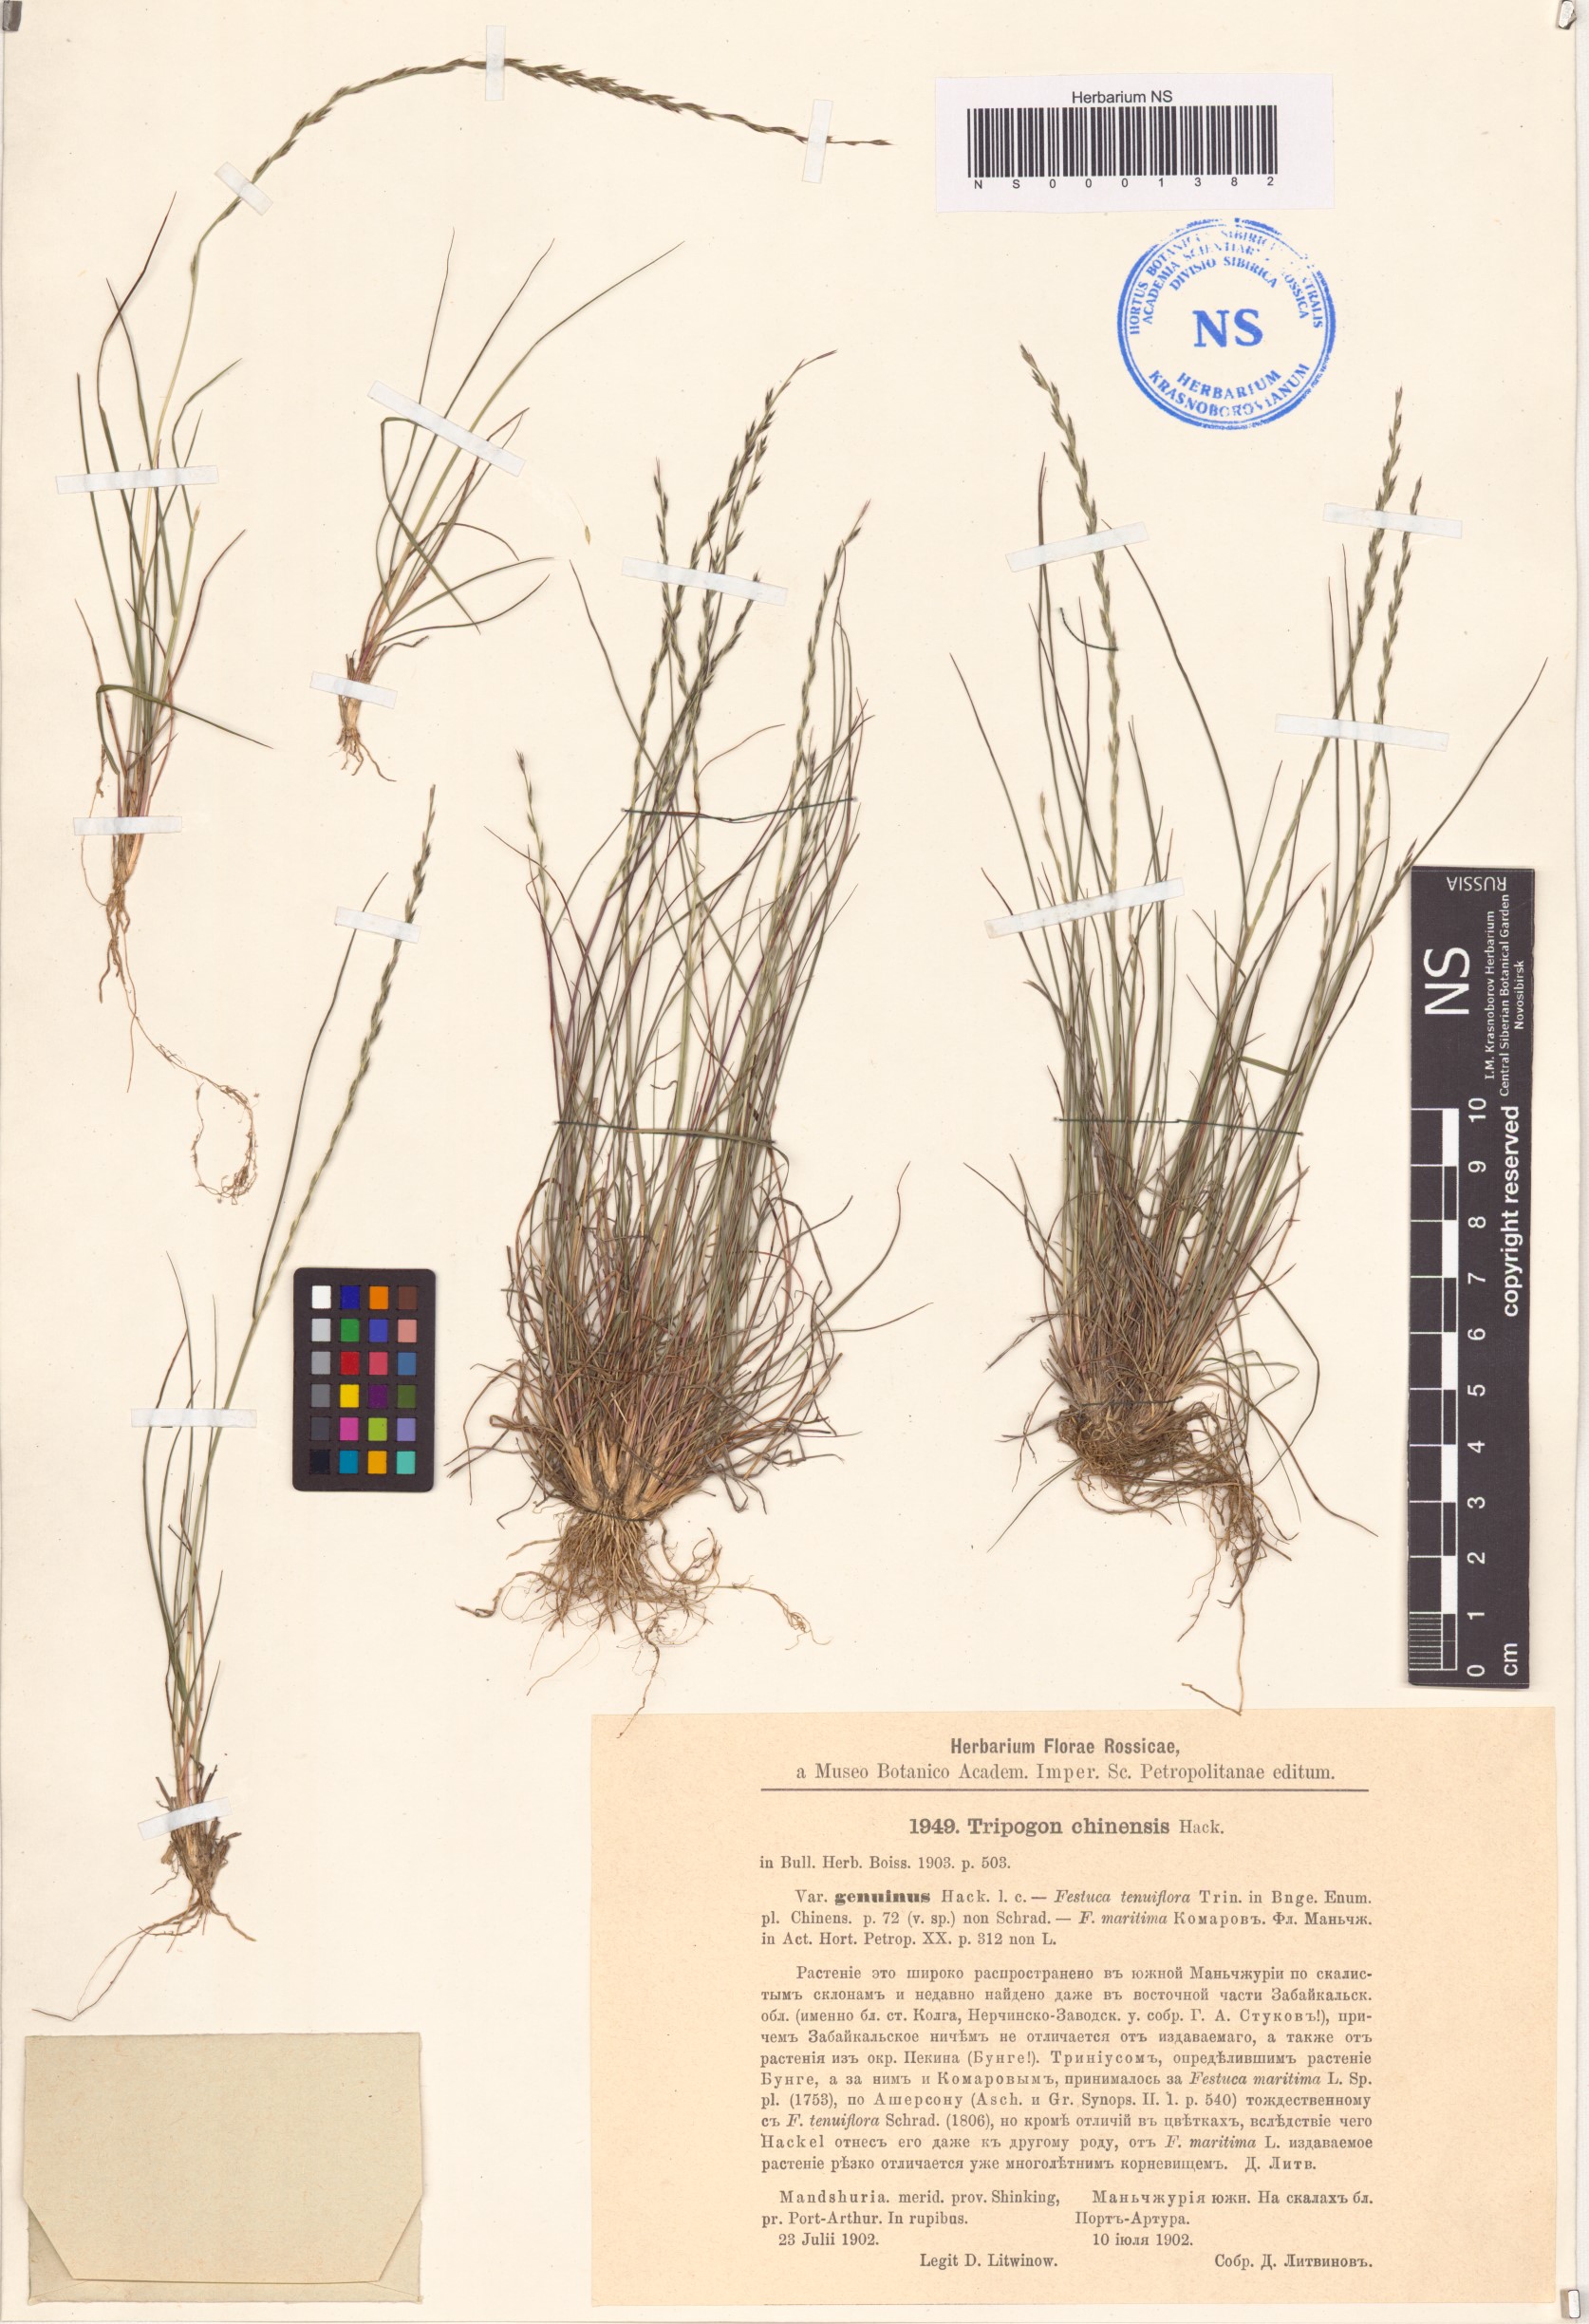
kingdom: Plantae
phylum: Tracheophyta
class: Liliopsida
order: Poales
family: Poaceae
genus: Tripogon
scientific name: Tripogon chinensis
